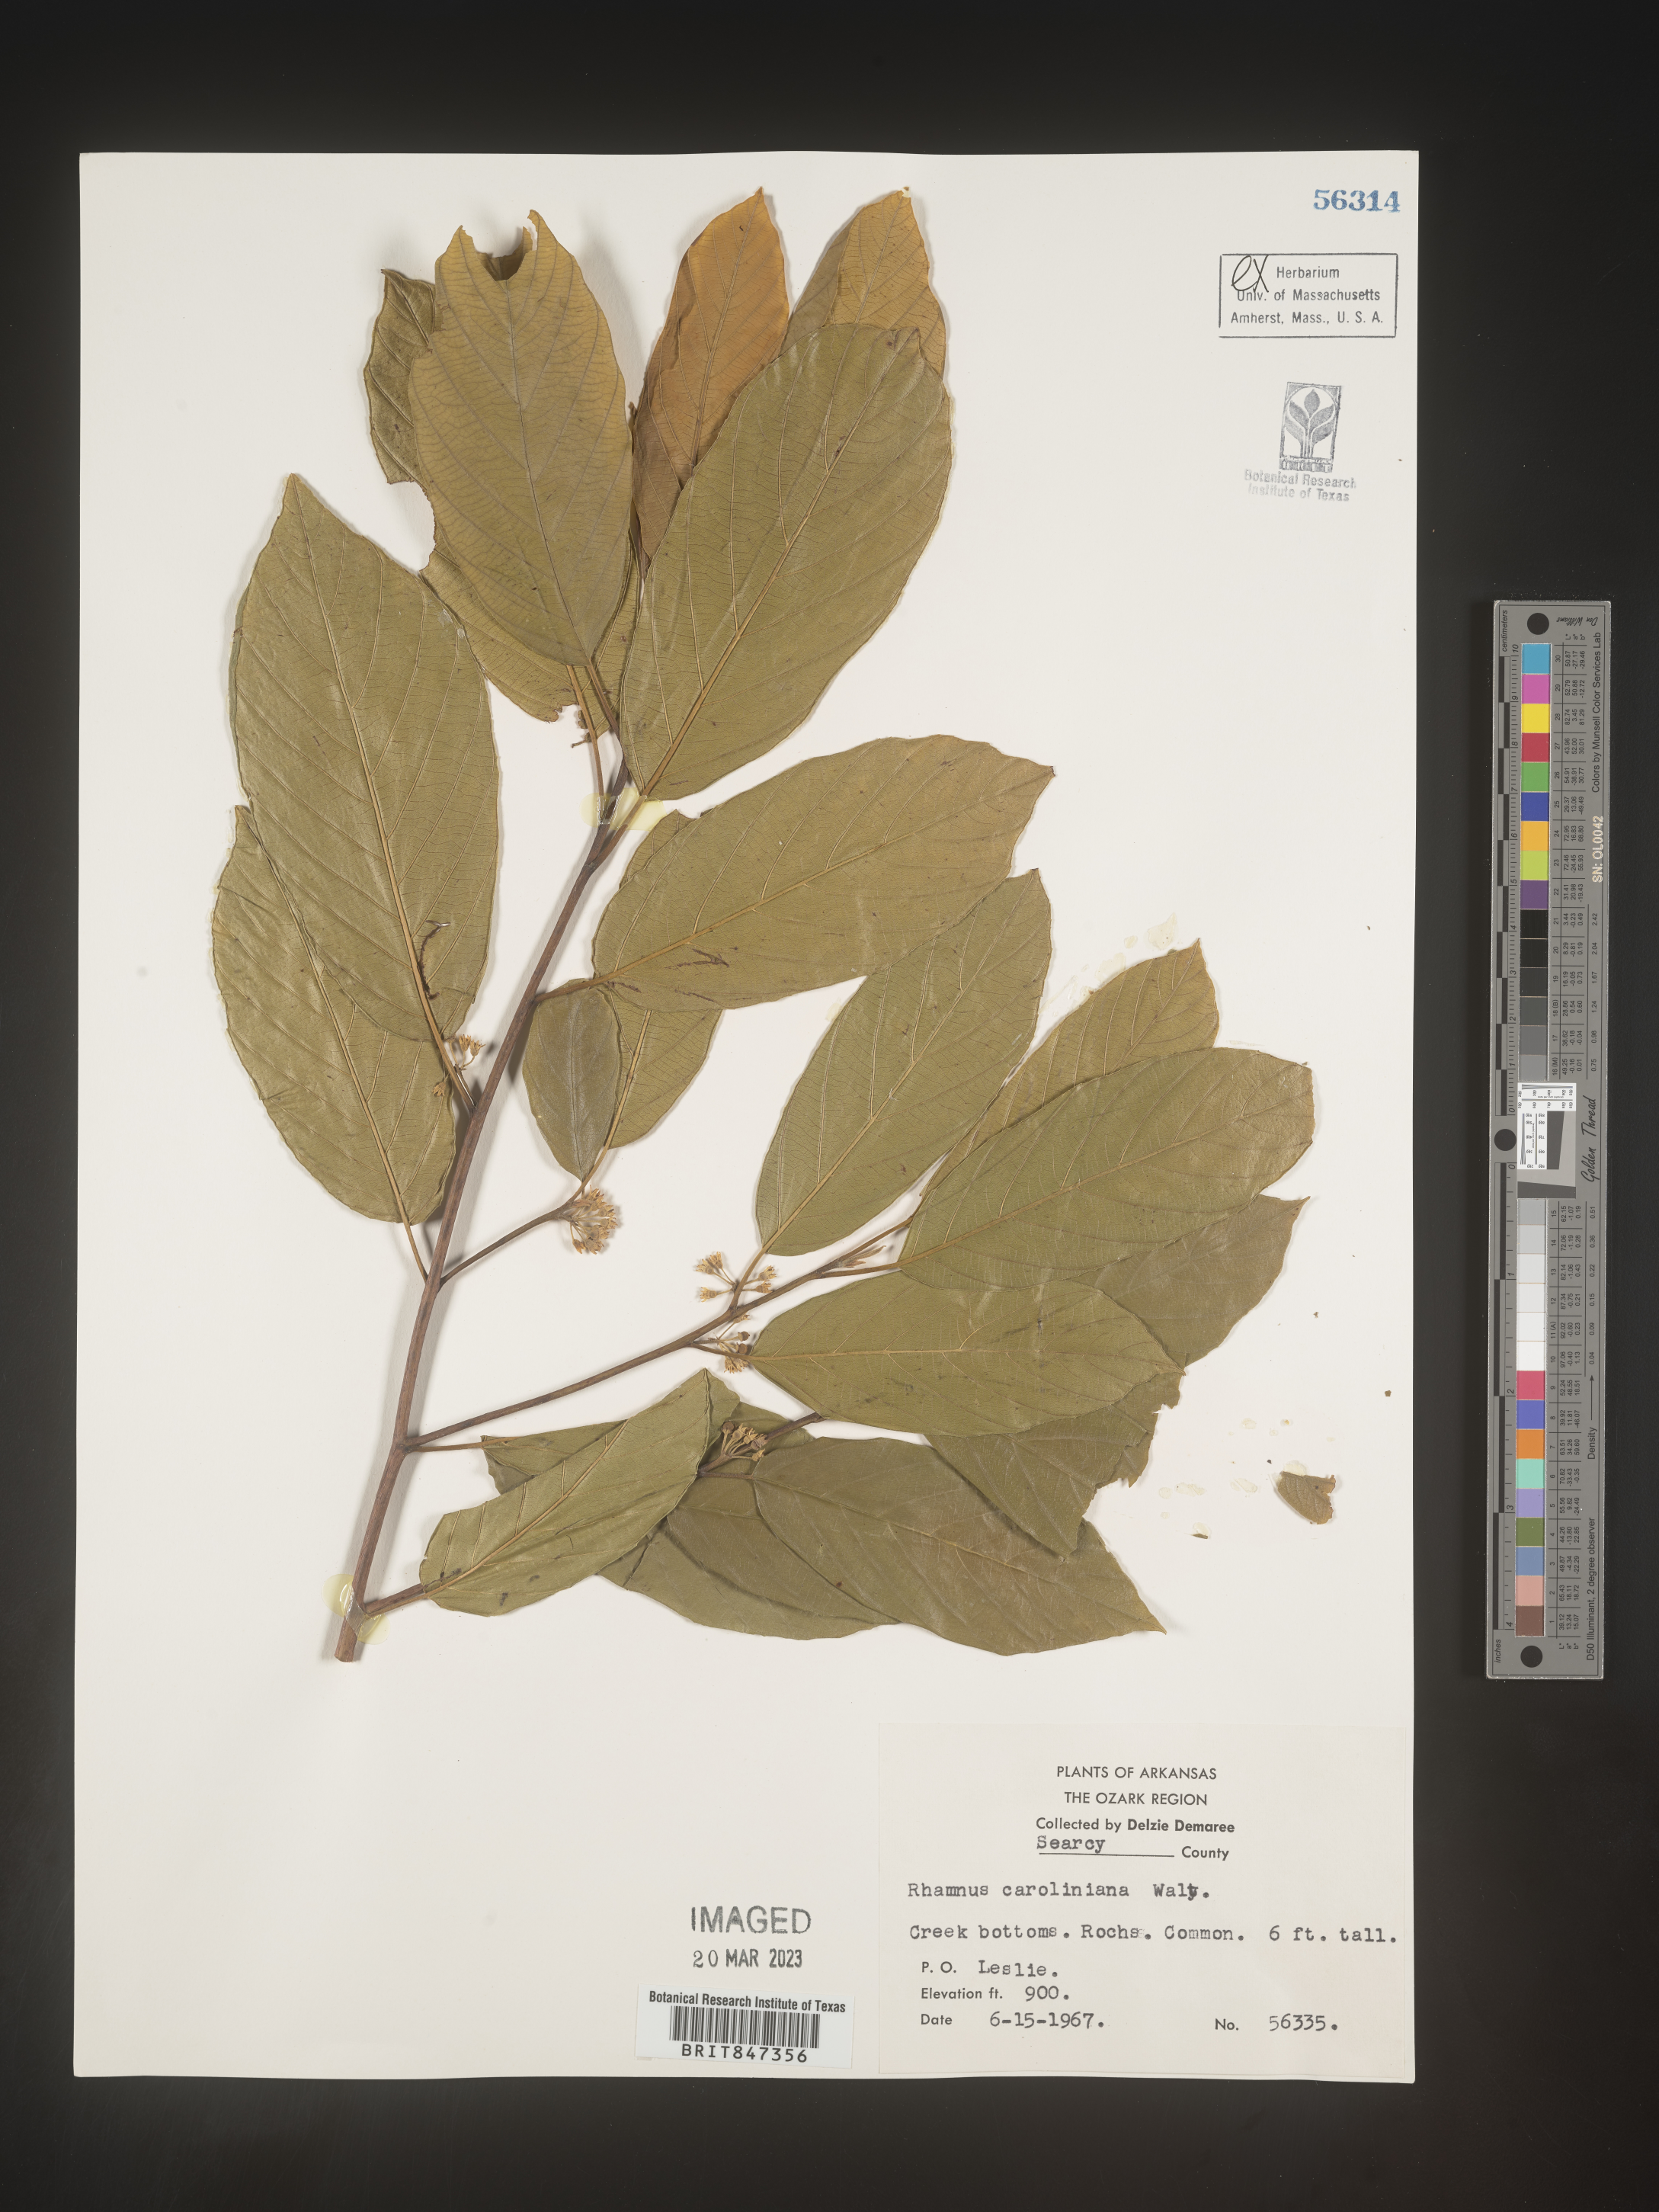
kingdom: Plantae
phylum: Tracheophyta
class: Magnoliopsida
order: Rosales
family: Rhamnaceae
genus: Frangula
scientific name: Frangula caroliniana
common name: Carolina buckthorn
